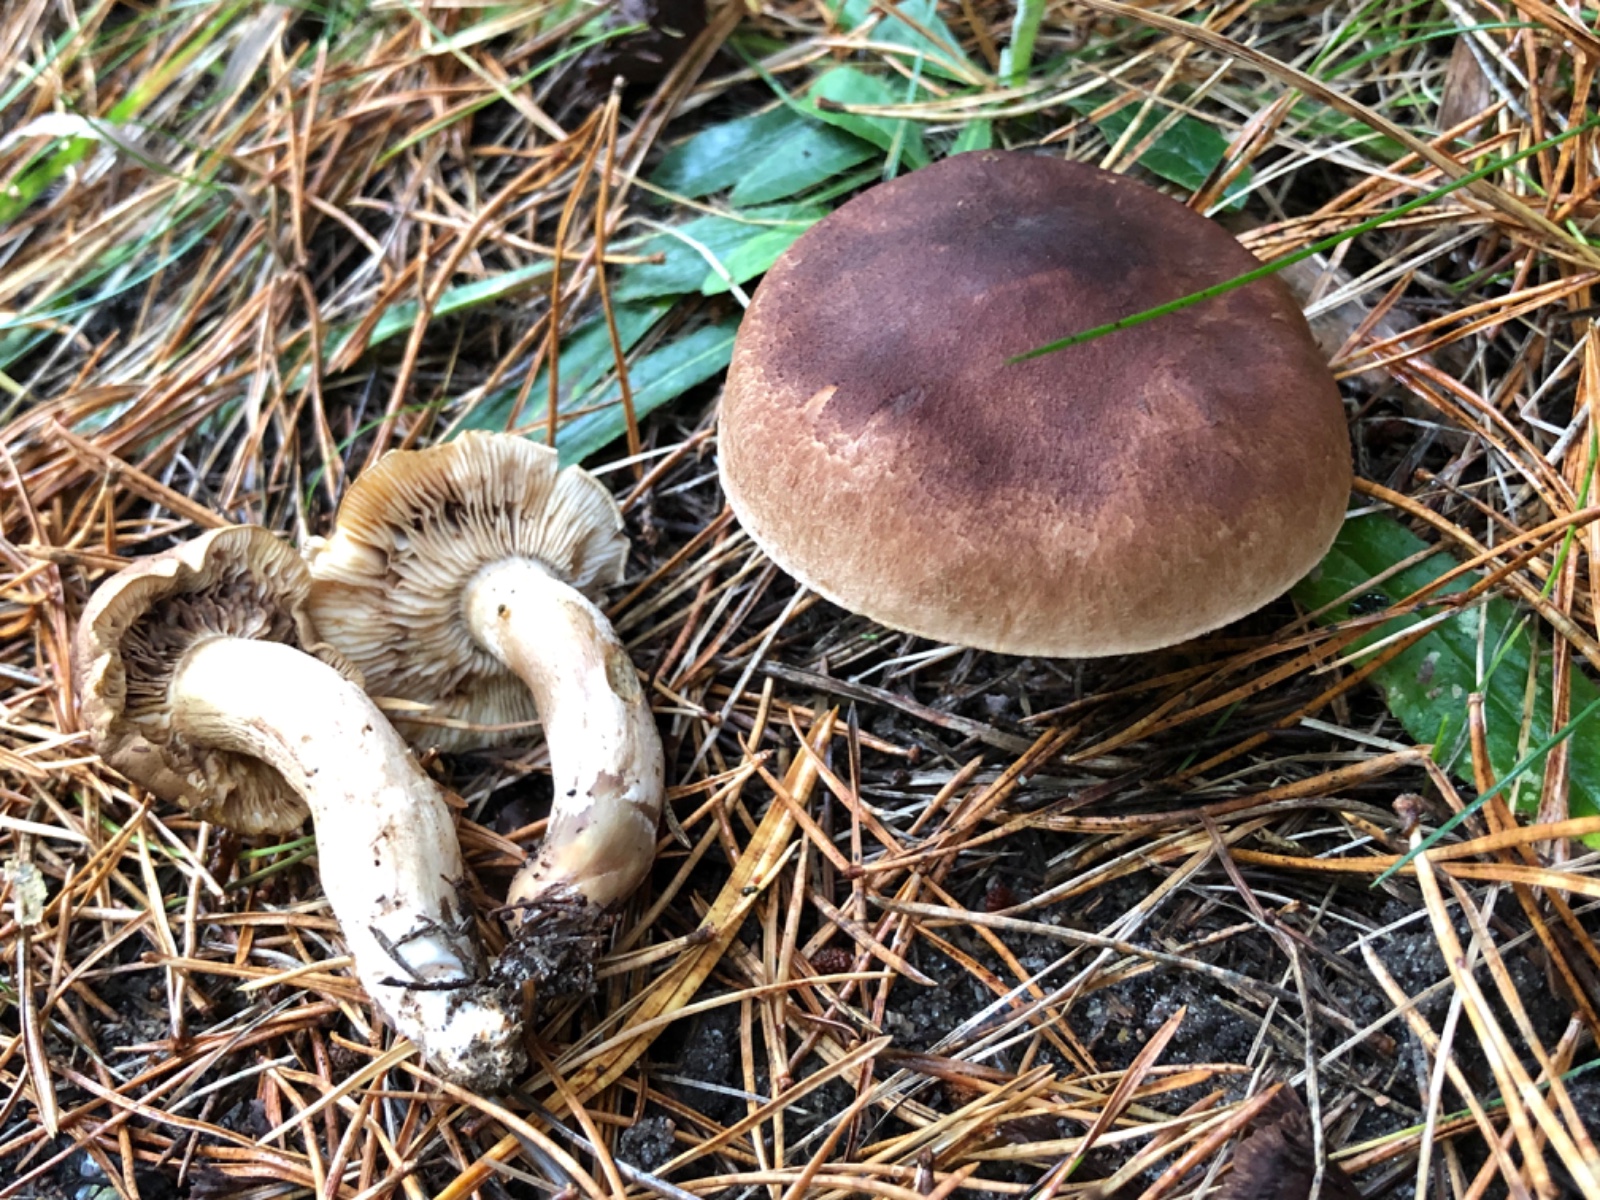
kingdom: Fungi
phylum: Basidiomycota
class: Agaricomycetes
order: Agaricales
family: Tricholomataceae
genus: Tricholoma
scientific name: Tricholoma imbricatum
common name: skællet ridderhat
